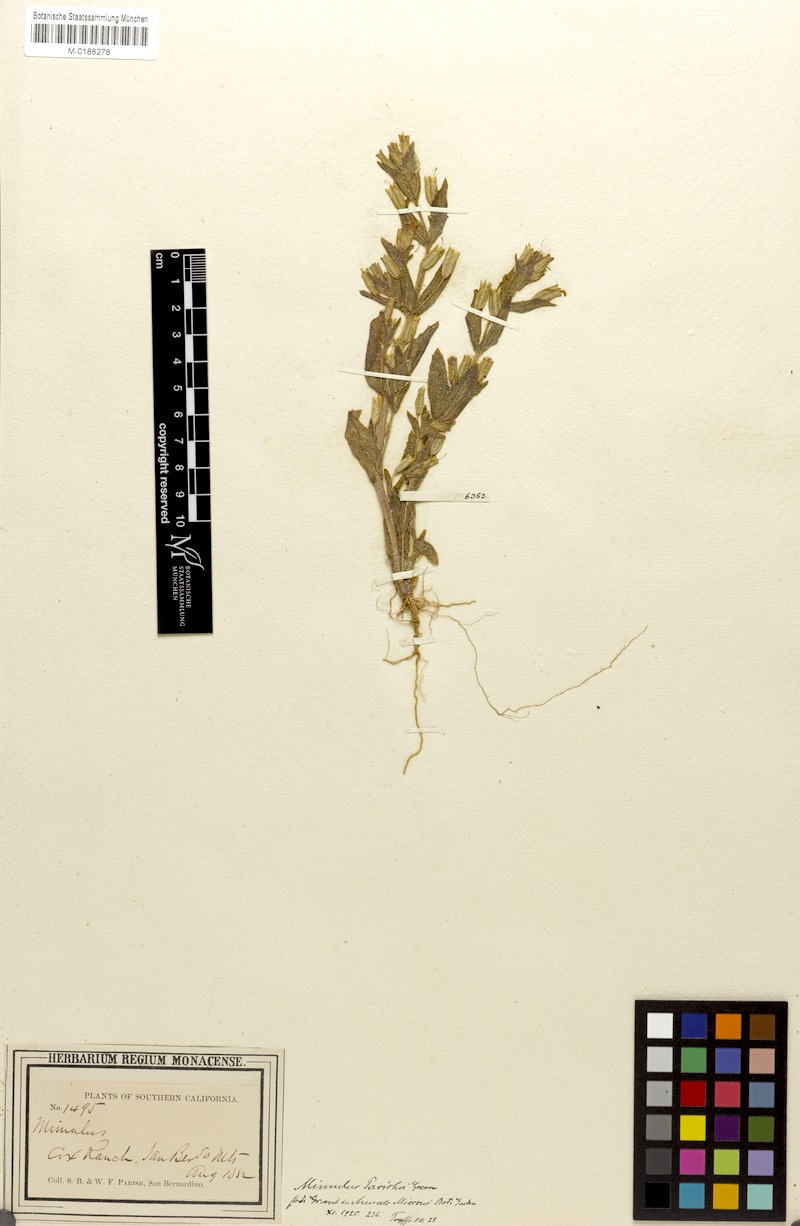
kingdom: Plantae
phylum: Tracheophyta
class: Magnoliopsida
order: Lamiales
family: Phrymaceae
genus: Erythranthe
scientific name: Erythranthe parishii
